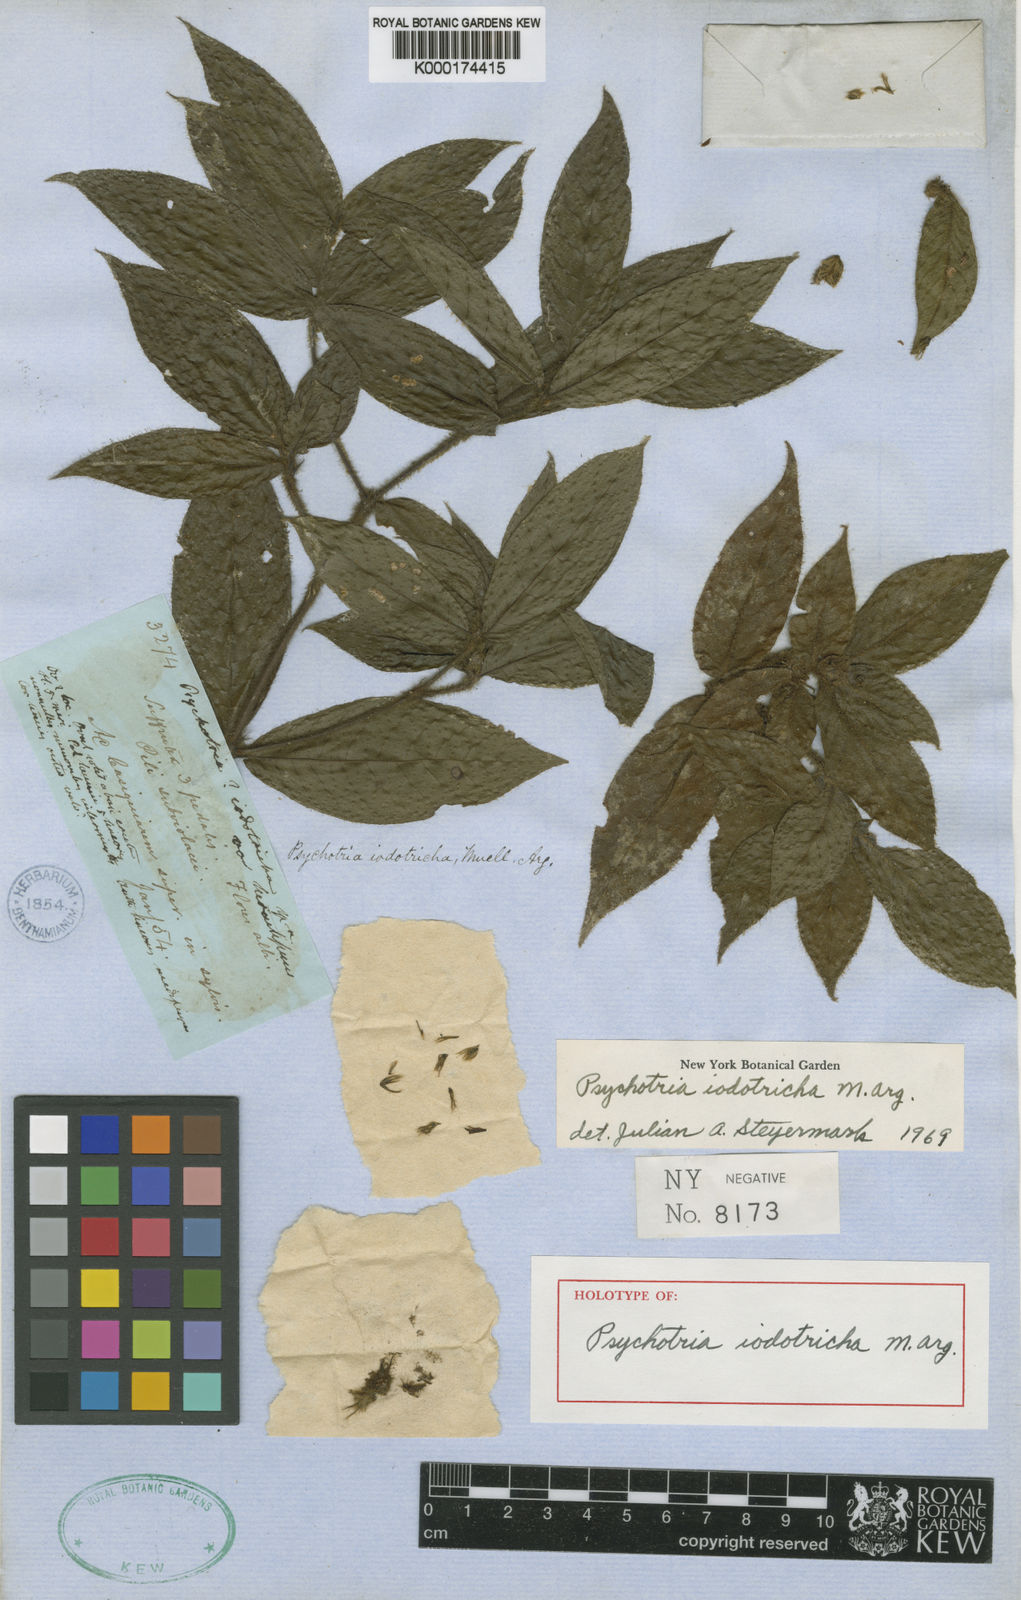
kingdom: Plantae
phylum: Tracheophyta
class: Magnoliopsida
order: Gentianales
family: Rubiaceae
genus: Psychotria
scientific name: Psychotria
